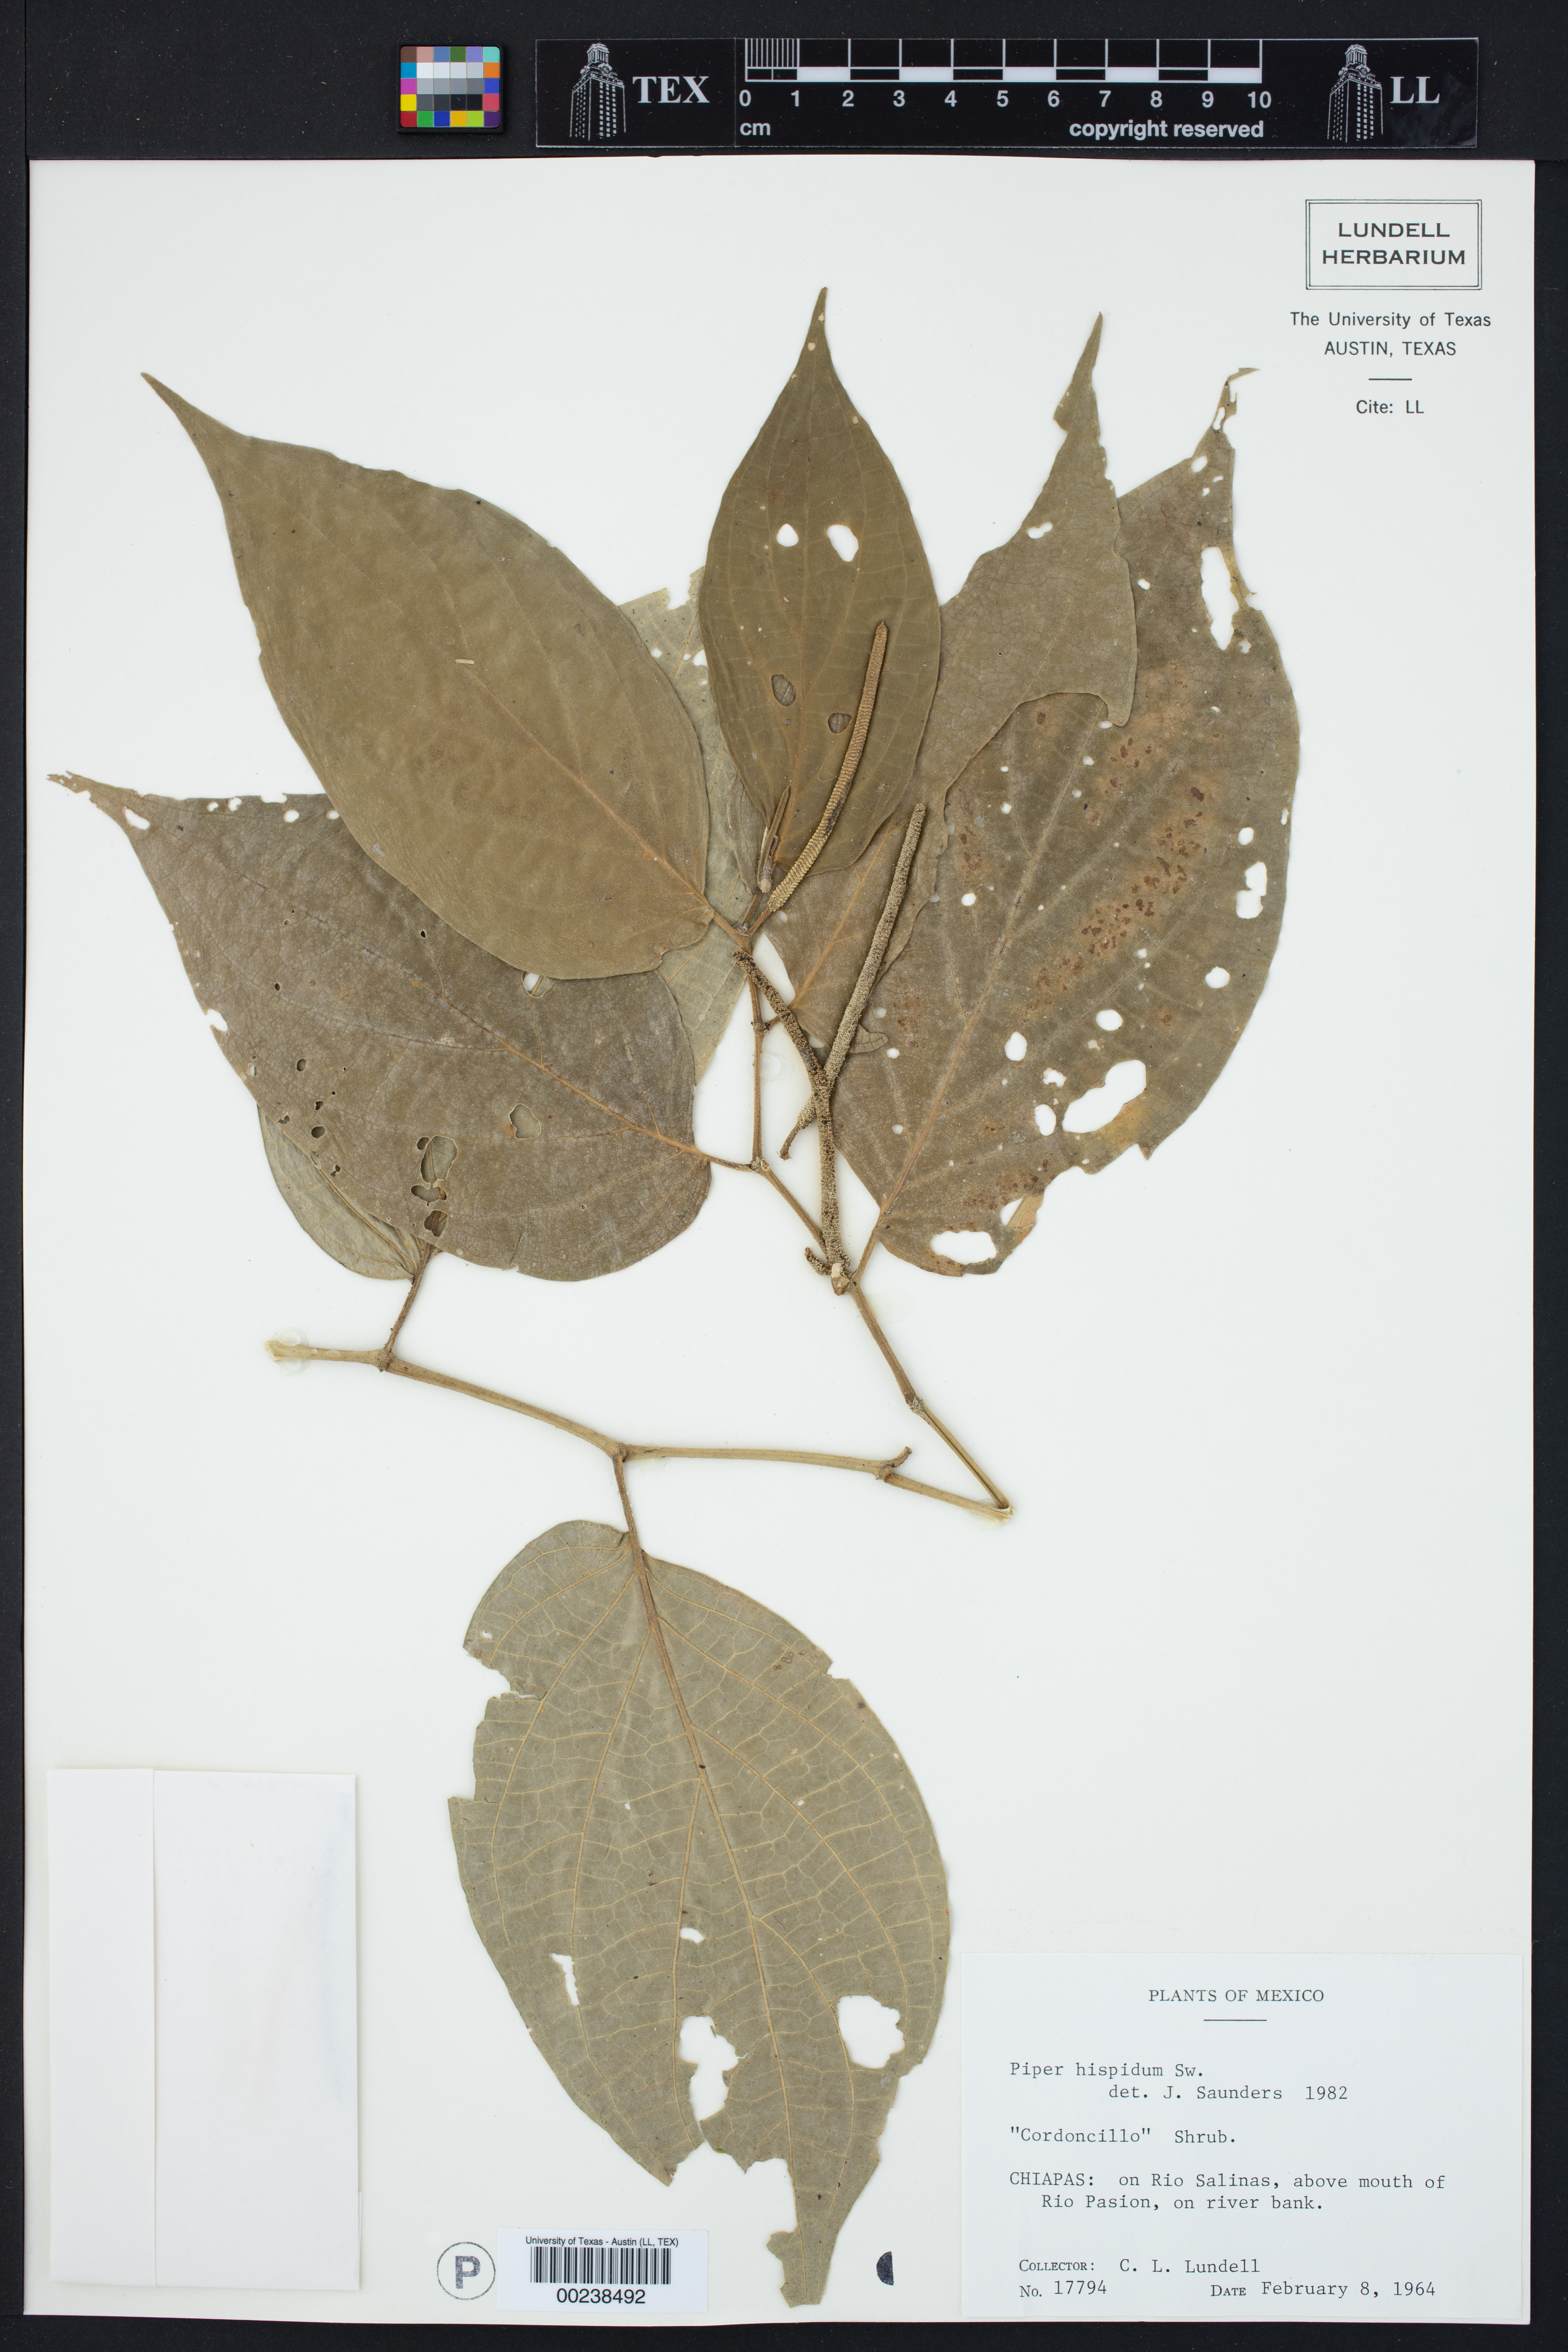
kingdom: Plantae
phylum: Tracheophyta
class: Magnoliopsida
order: Piperales
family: Piperaceae
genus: Piper
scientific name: Piper hispidum
